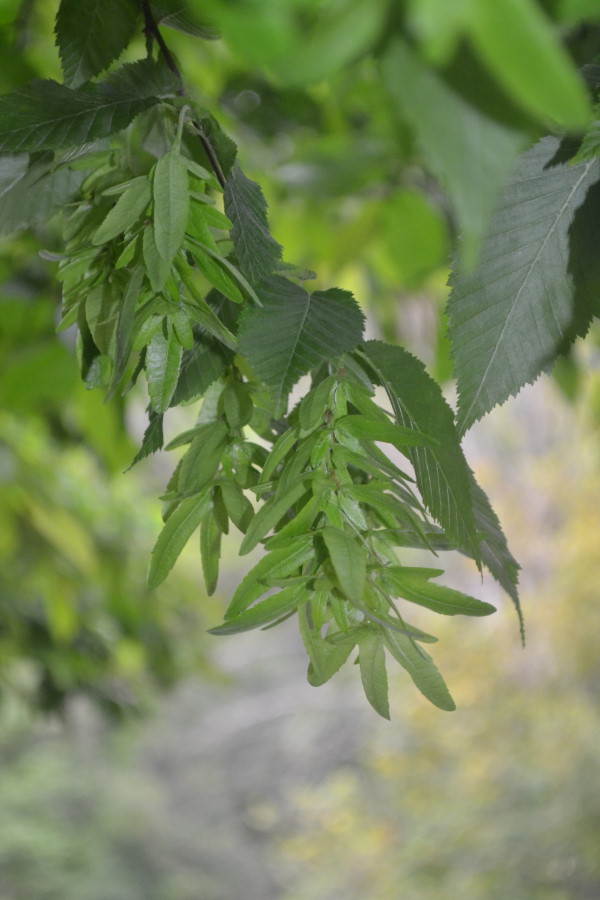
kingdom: Plantae
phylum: Tracheophyta
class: Magnoliopsida
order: Fagales
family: Betulaceae
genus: Carpinus
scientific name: Carpinus betulus
